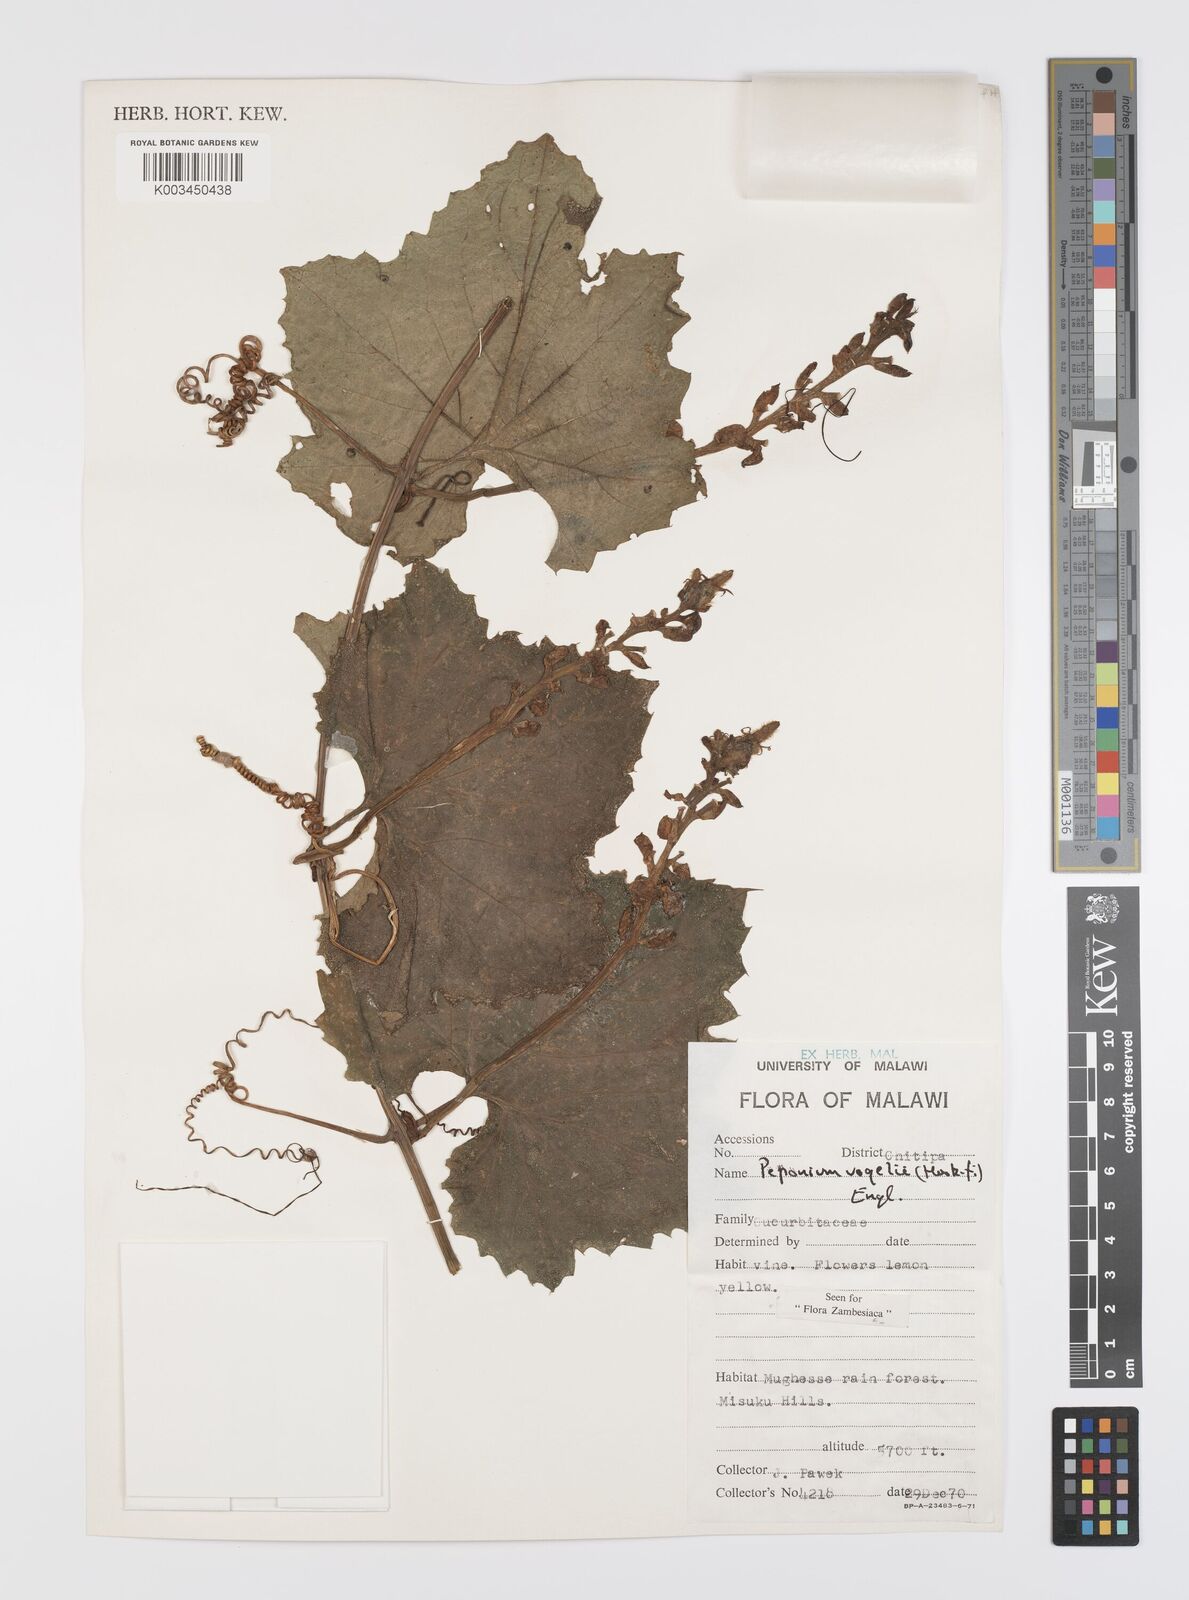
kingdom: Plantae
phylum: Tracheophyta
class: Magnoliopsida
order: Cucurbitales
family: Cucurbitaceae
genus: Peponium
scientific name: Peponium vogelii
